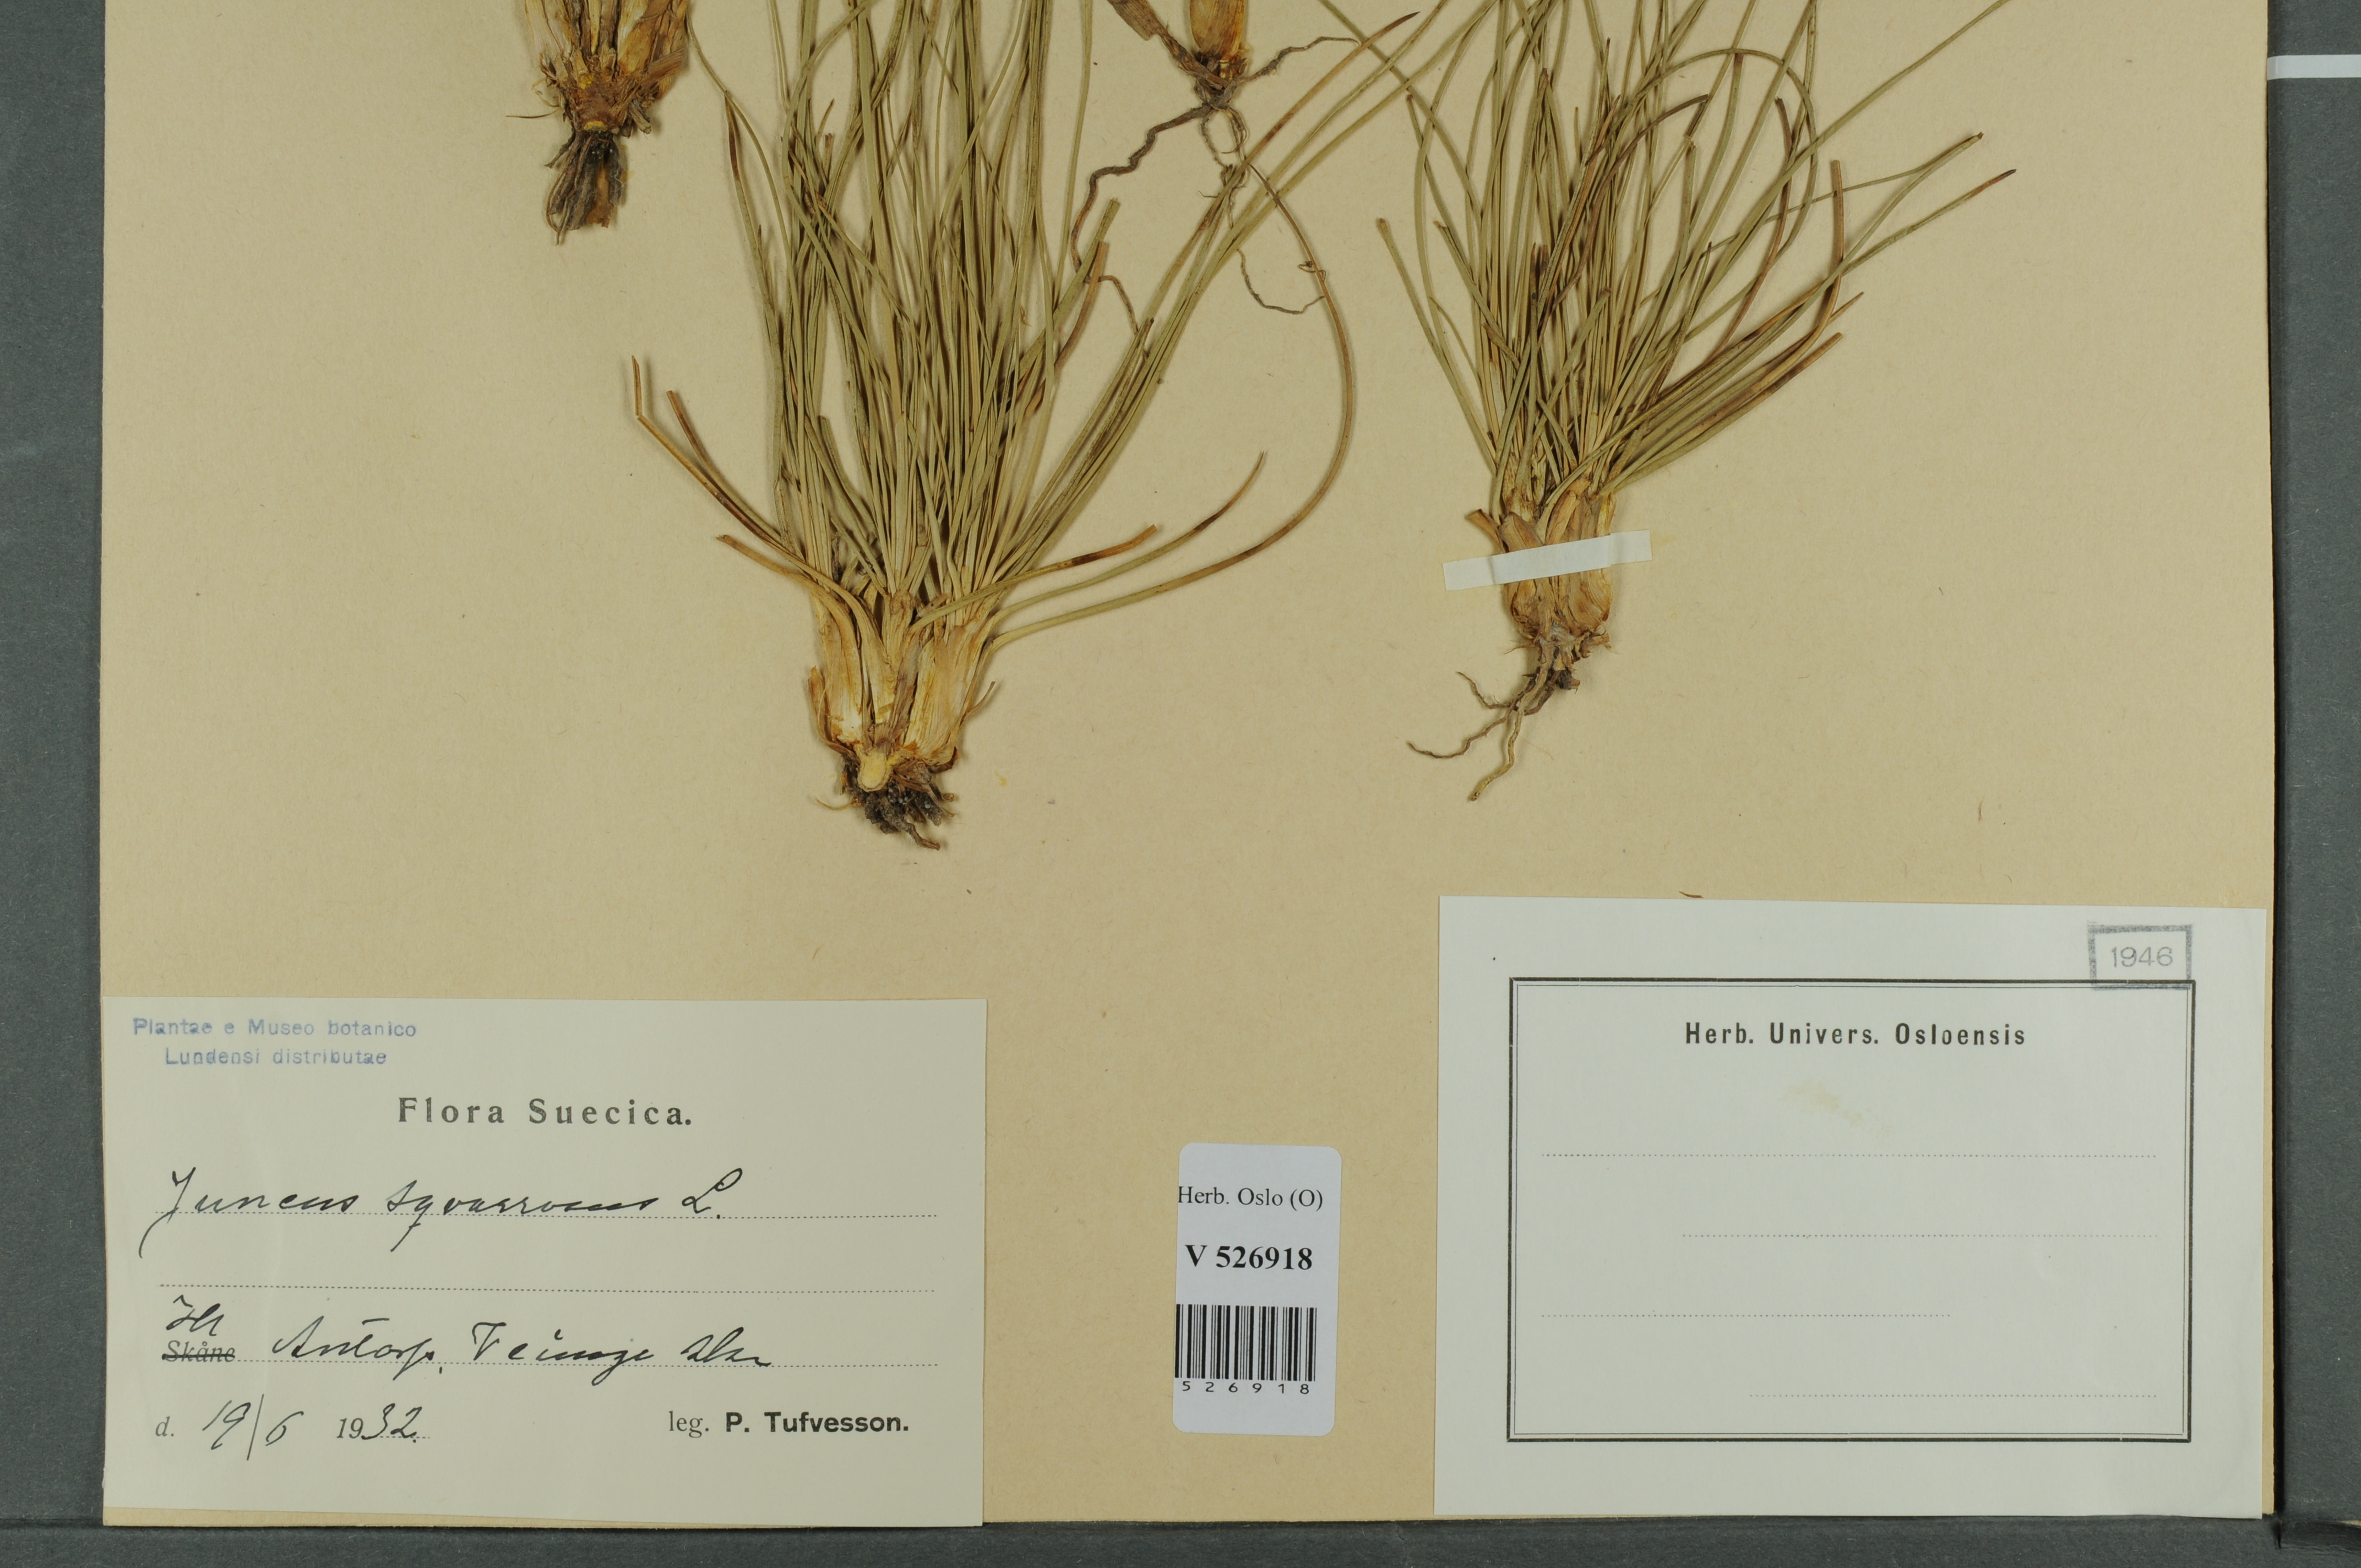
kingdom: Plantae
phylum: Tracheophyta
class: Liliopsida
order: Poales
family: Juncaceae
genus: Juncus
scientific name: Juncus squarrosus
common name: Heath rush
